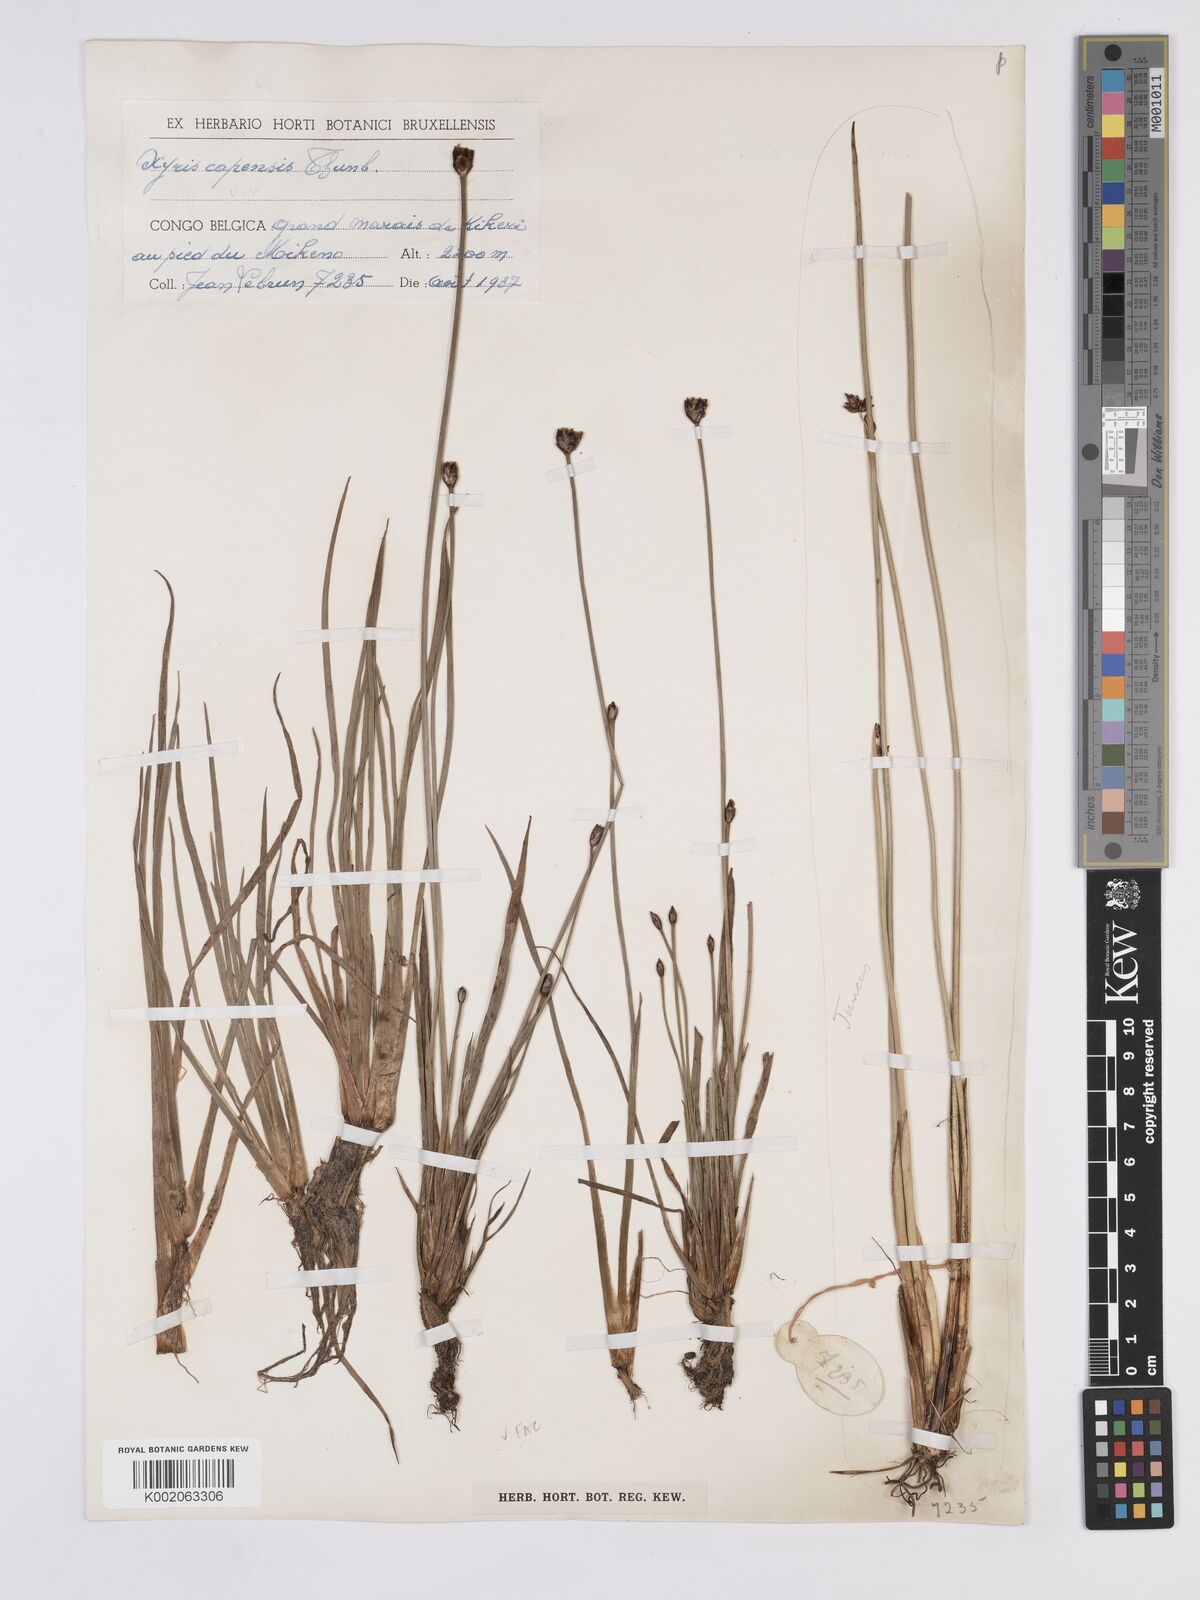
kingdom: Plantae
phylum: Tracheophyta
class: Liliopsida
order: Poales
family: Xyridaceae
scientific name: Xyridaceae
